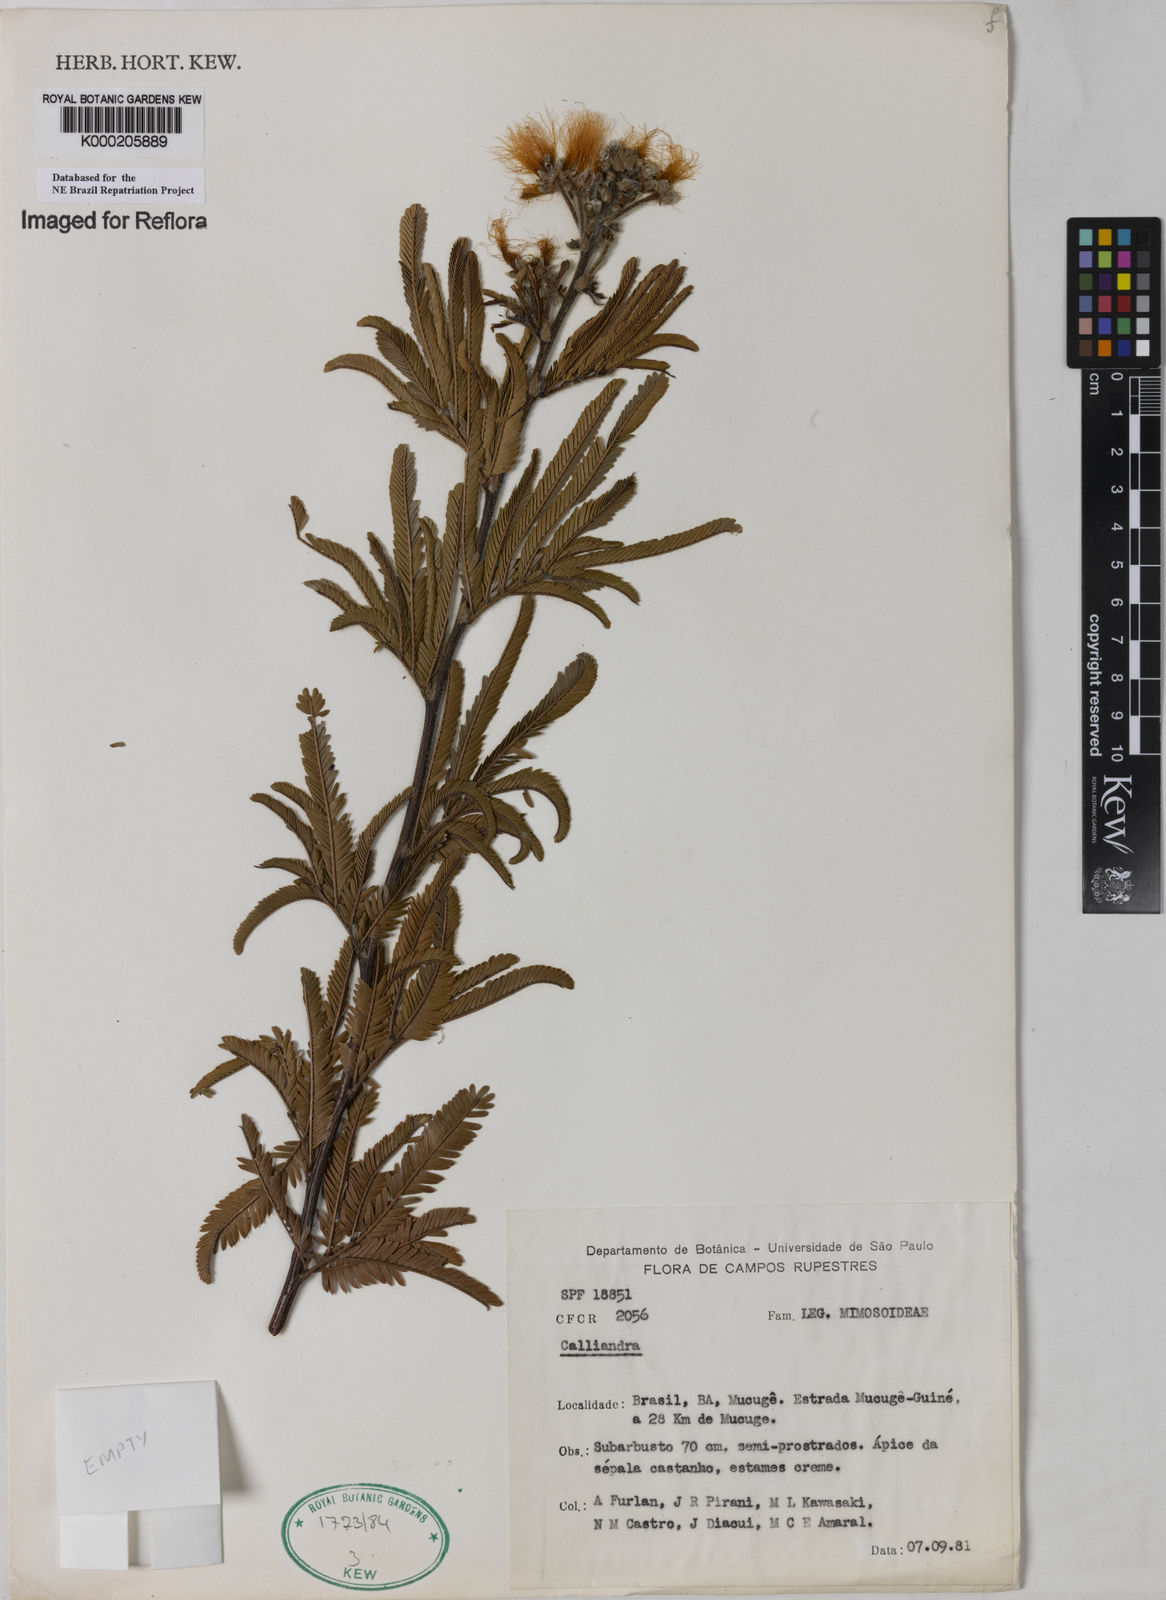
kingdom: Plantae
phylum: Tracheophyta
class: Magnoliopsida
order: Fabales
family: Fabaceae
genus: Calliandra
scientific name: Calliandra
